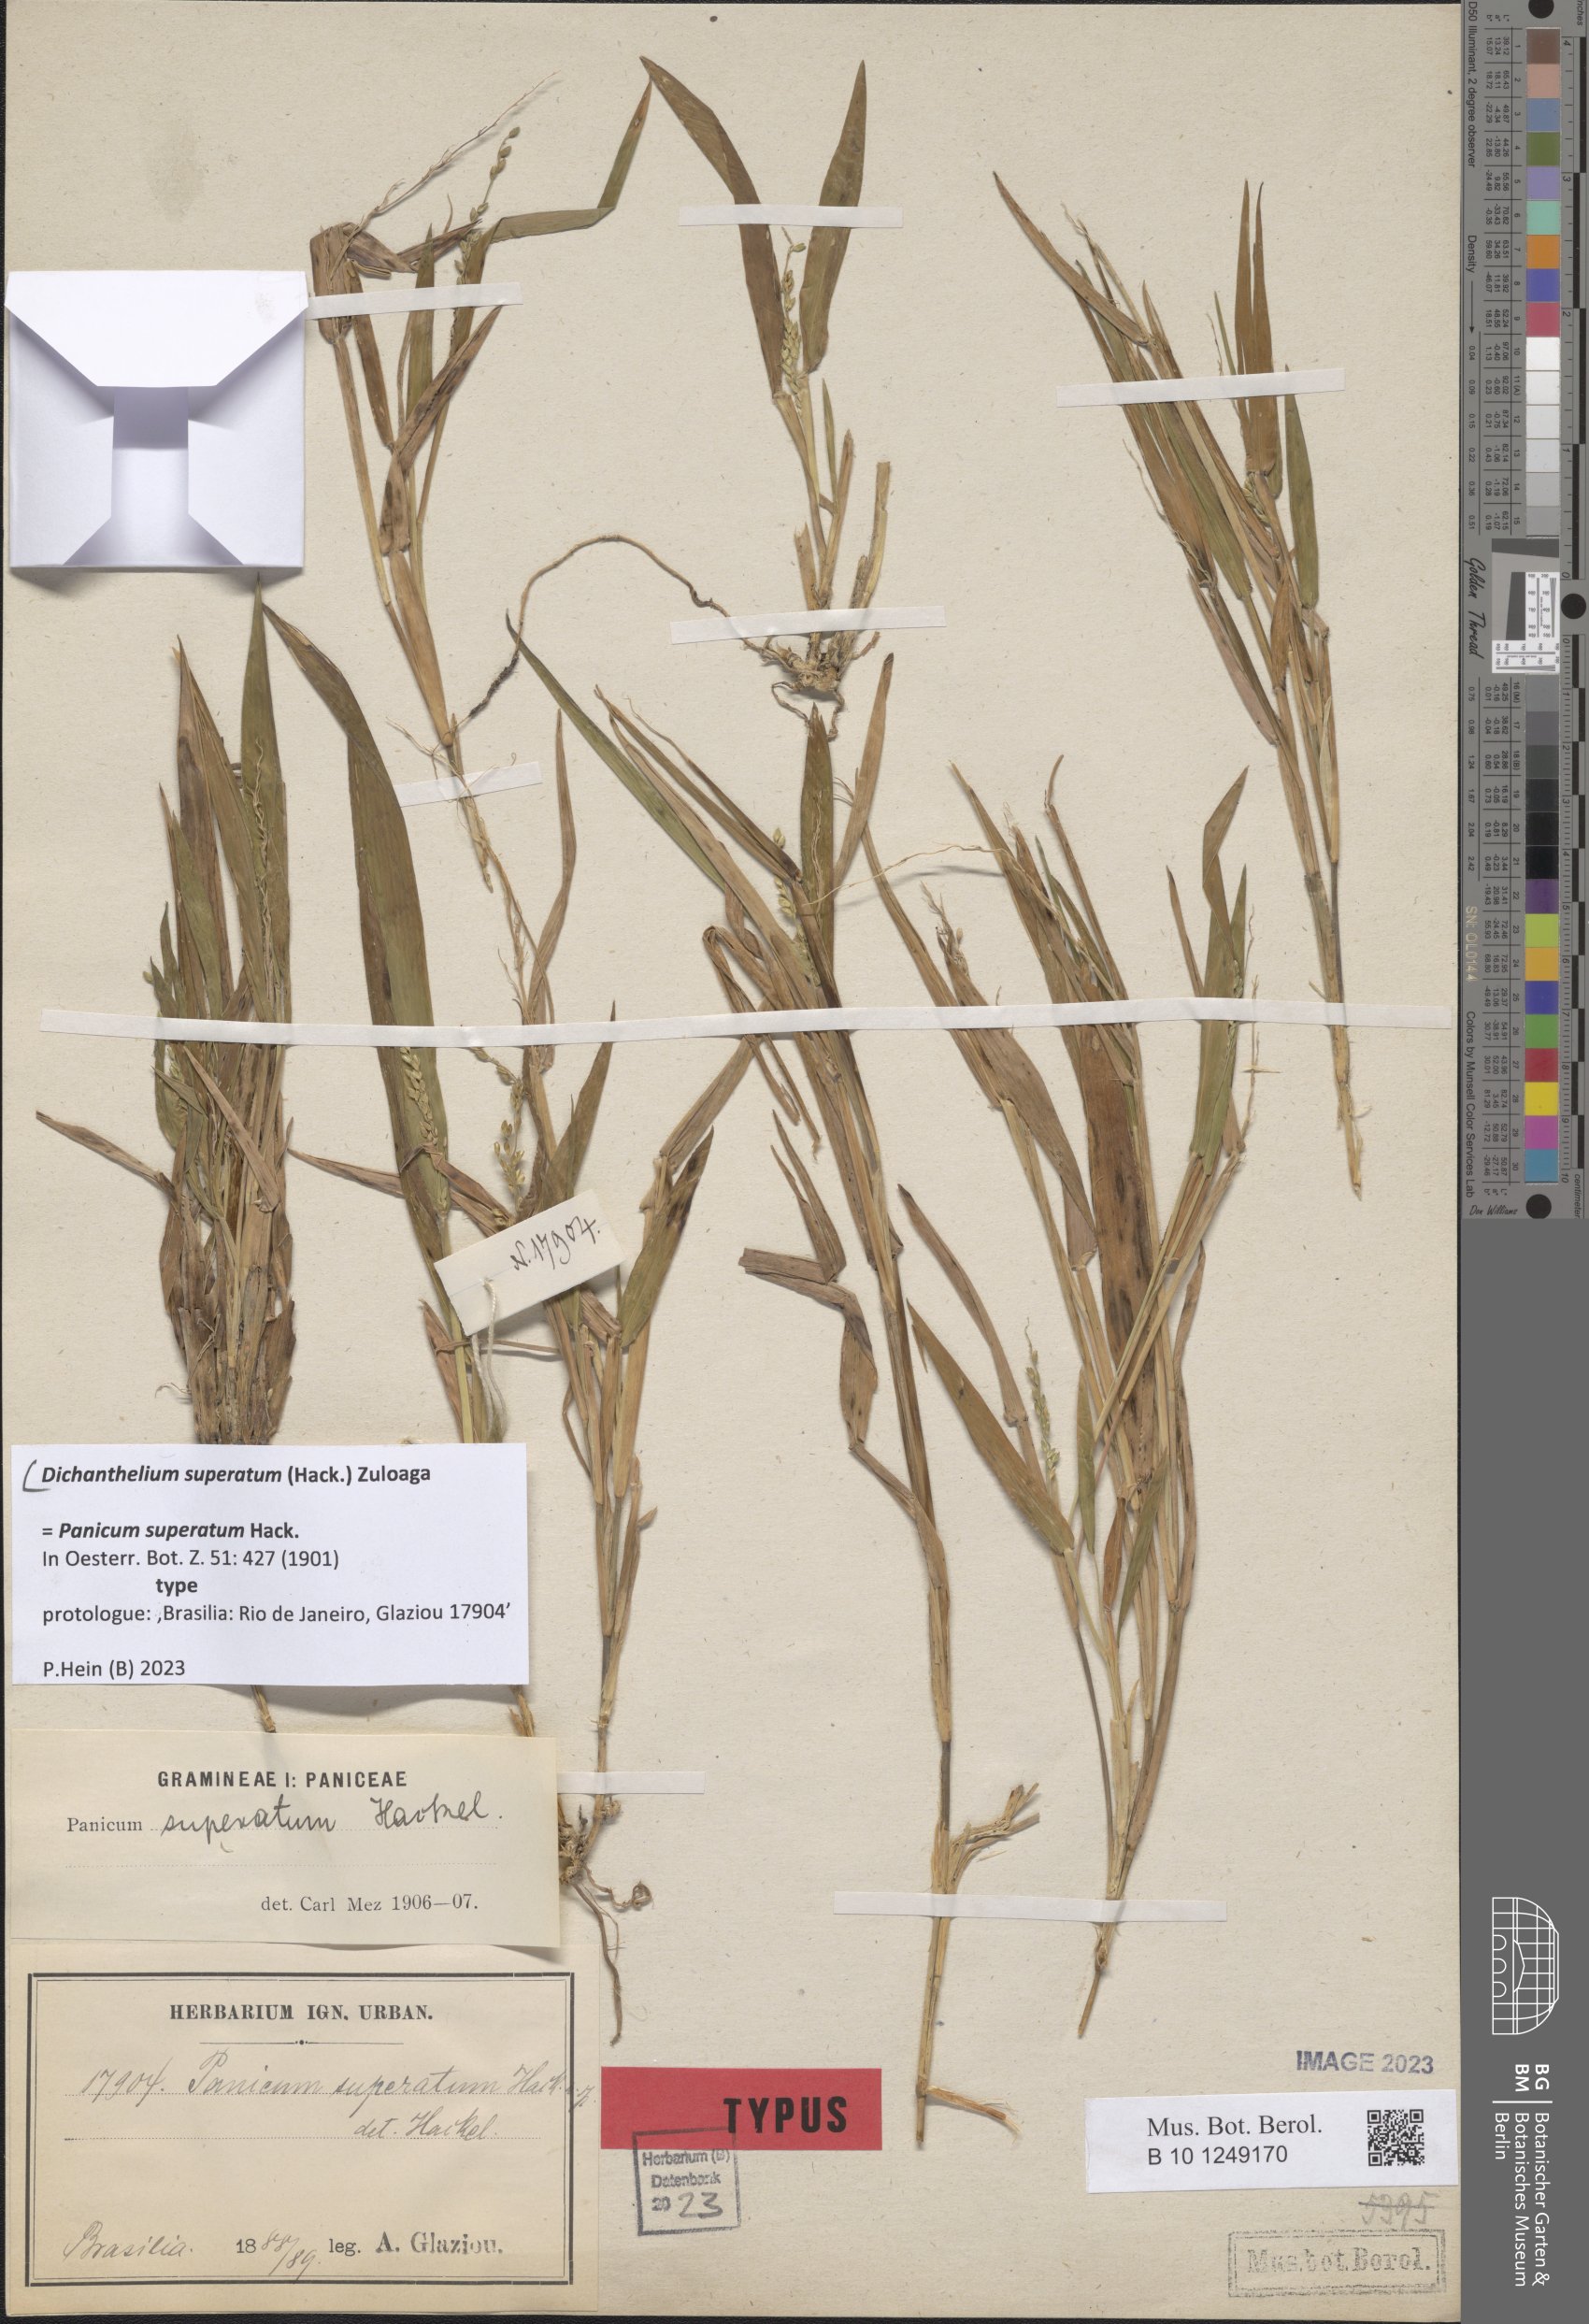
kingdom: Plantae
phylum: Tracheophyta
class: Liliopsida
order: Poales
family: Poaceae
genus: Dichanthelium
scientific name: Dichanthelium superatum
